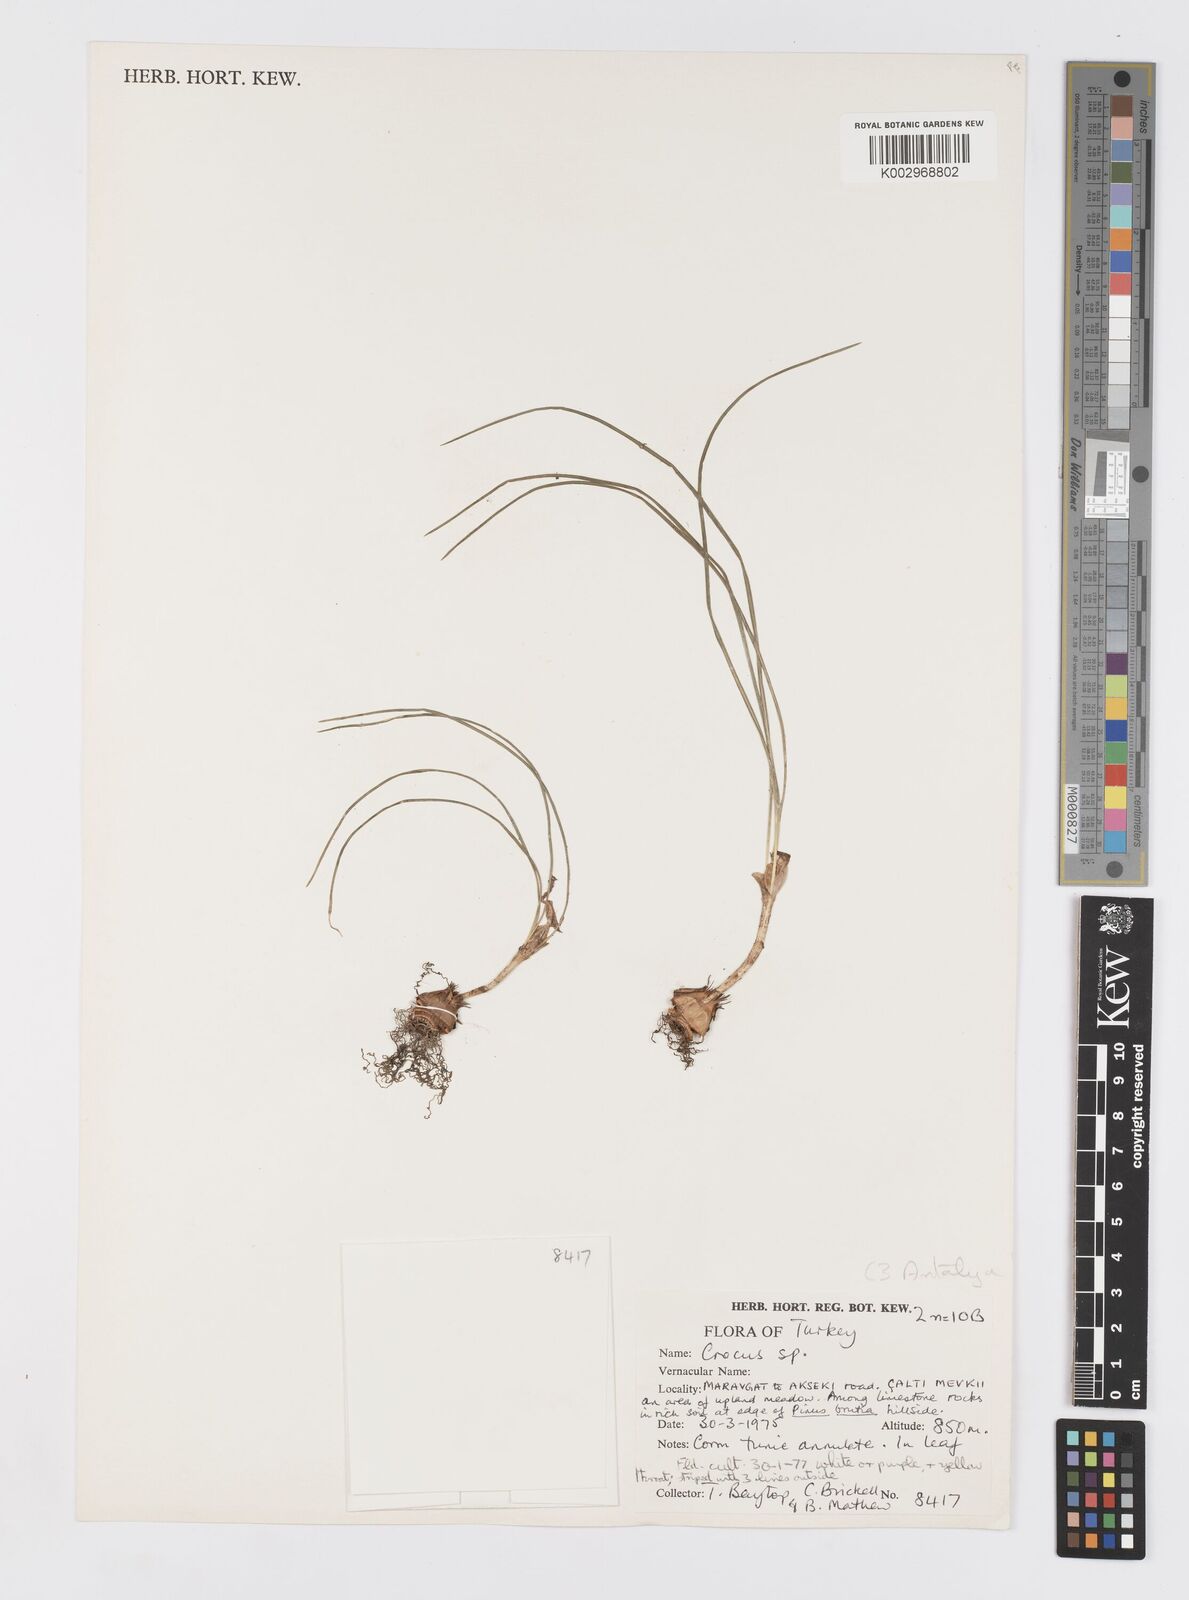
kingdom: Plantae
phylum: Tracheophyta
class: Liliopsida
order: Asparagales
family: Iridaceae
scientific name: Iridaceae
